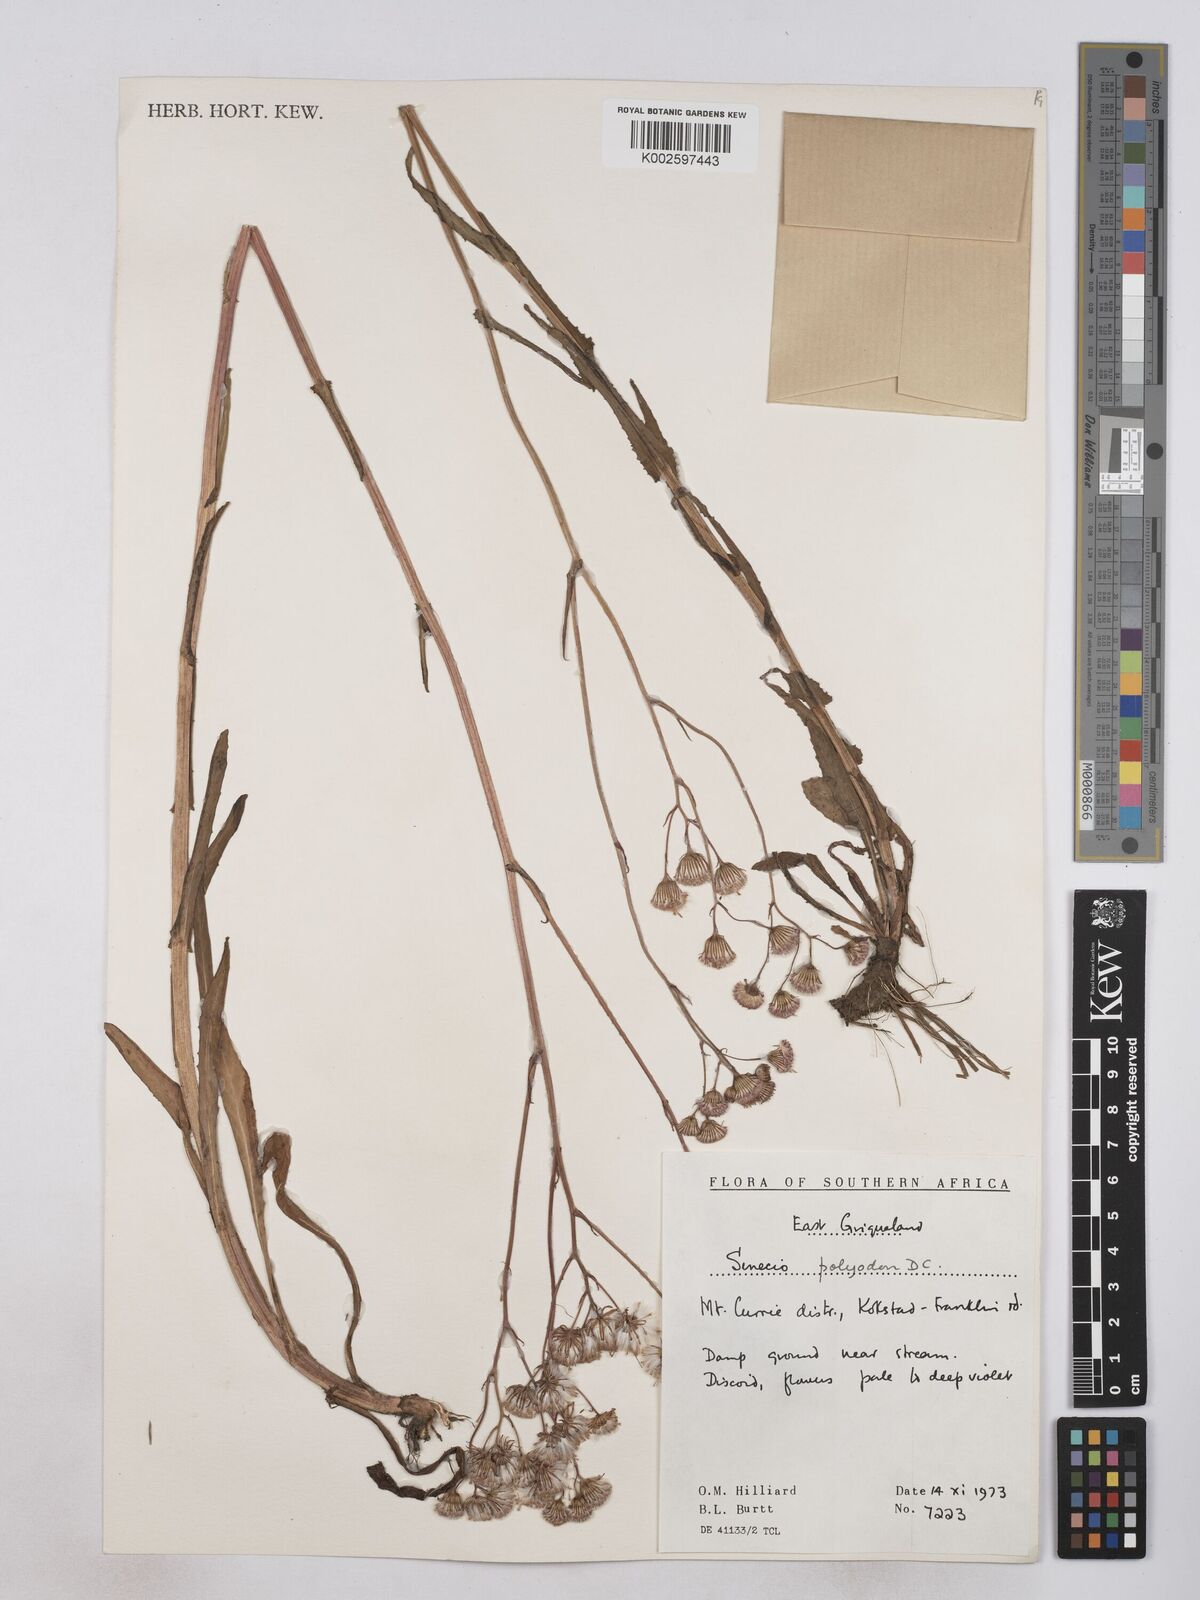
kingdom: Plantae
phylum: Tracheophyta
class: Magnoliopsida
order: Asterales
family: Asteraceae
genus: Senecio
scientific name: Senecio polyodon
